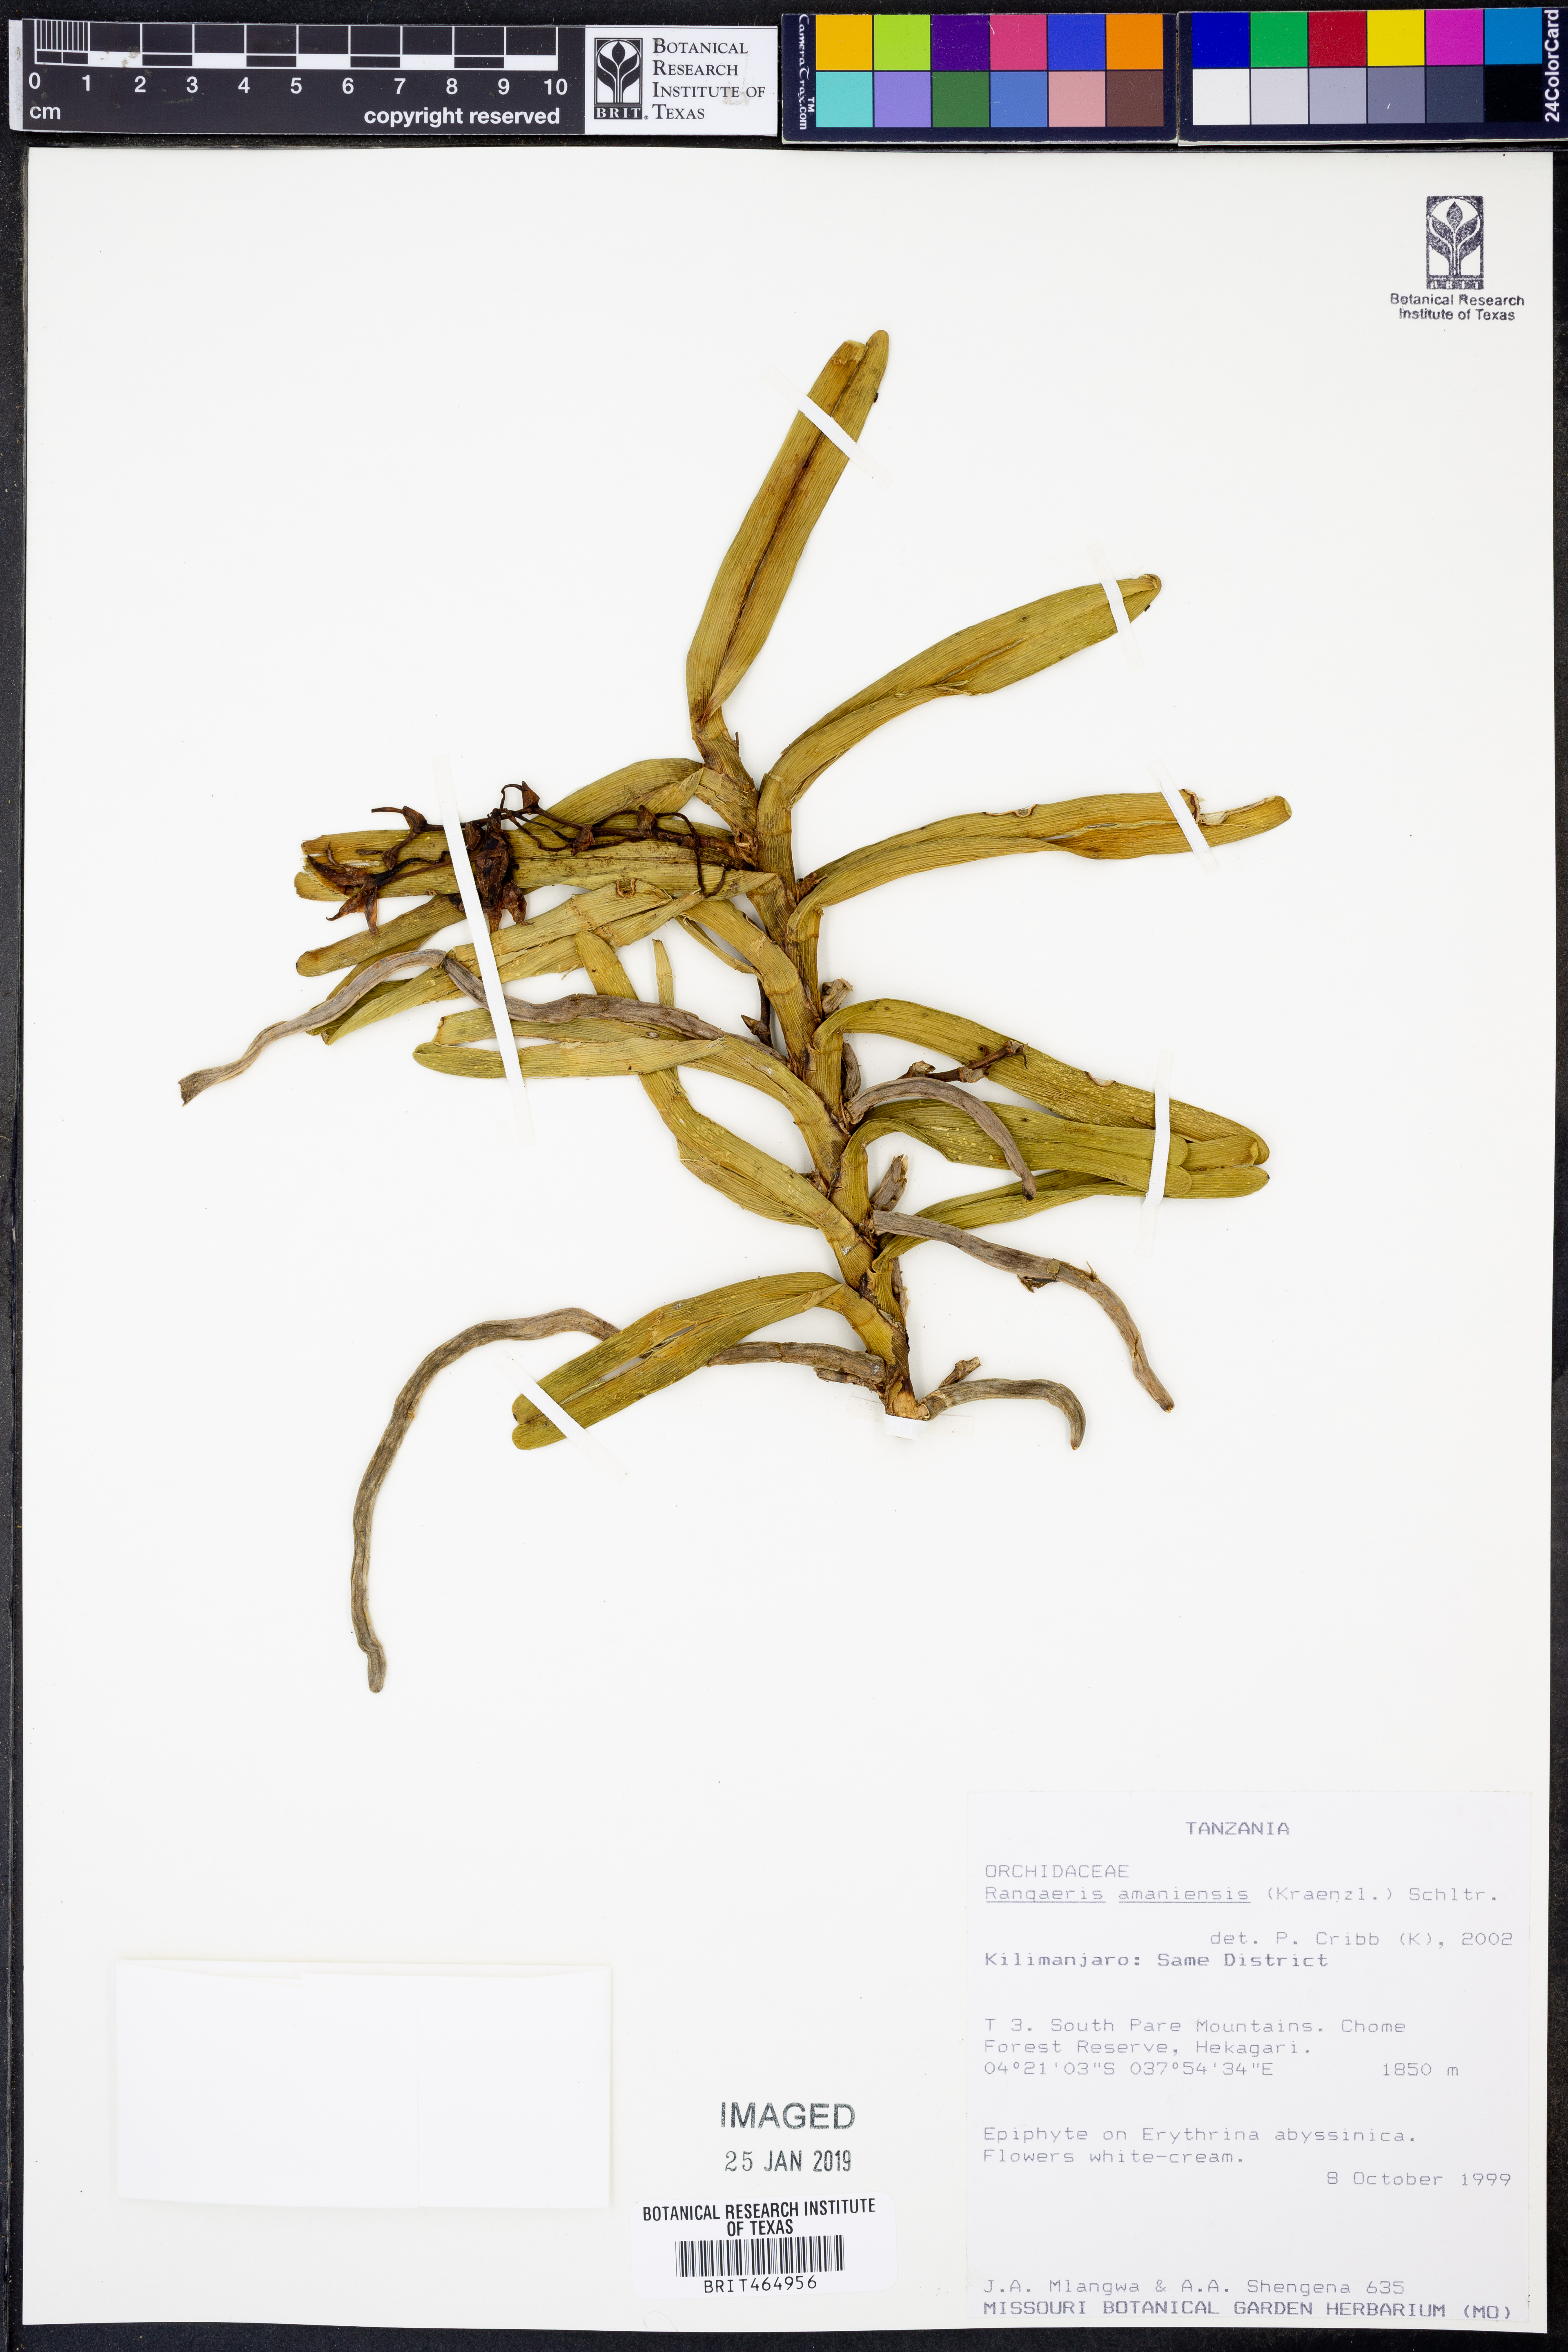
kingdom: Plantae
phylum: Tracheophyta
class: Liliopsida
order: Asparagales
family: Orchidaceae
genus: Ypsilopus
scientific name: Ypsilopus amaniensis
